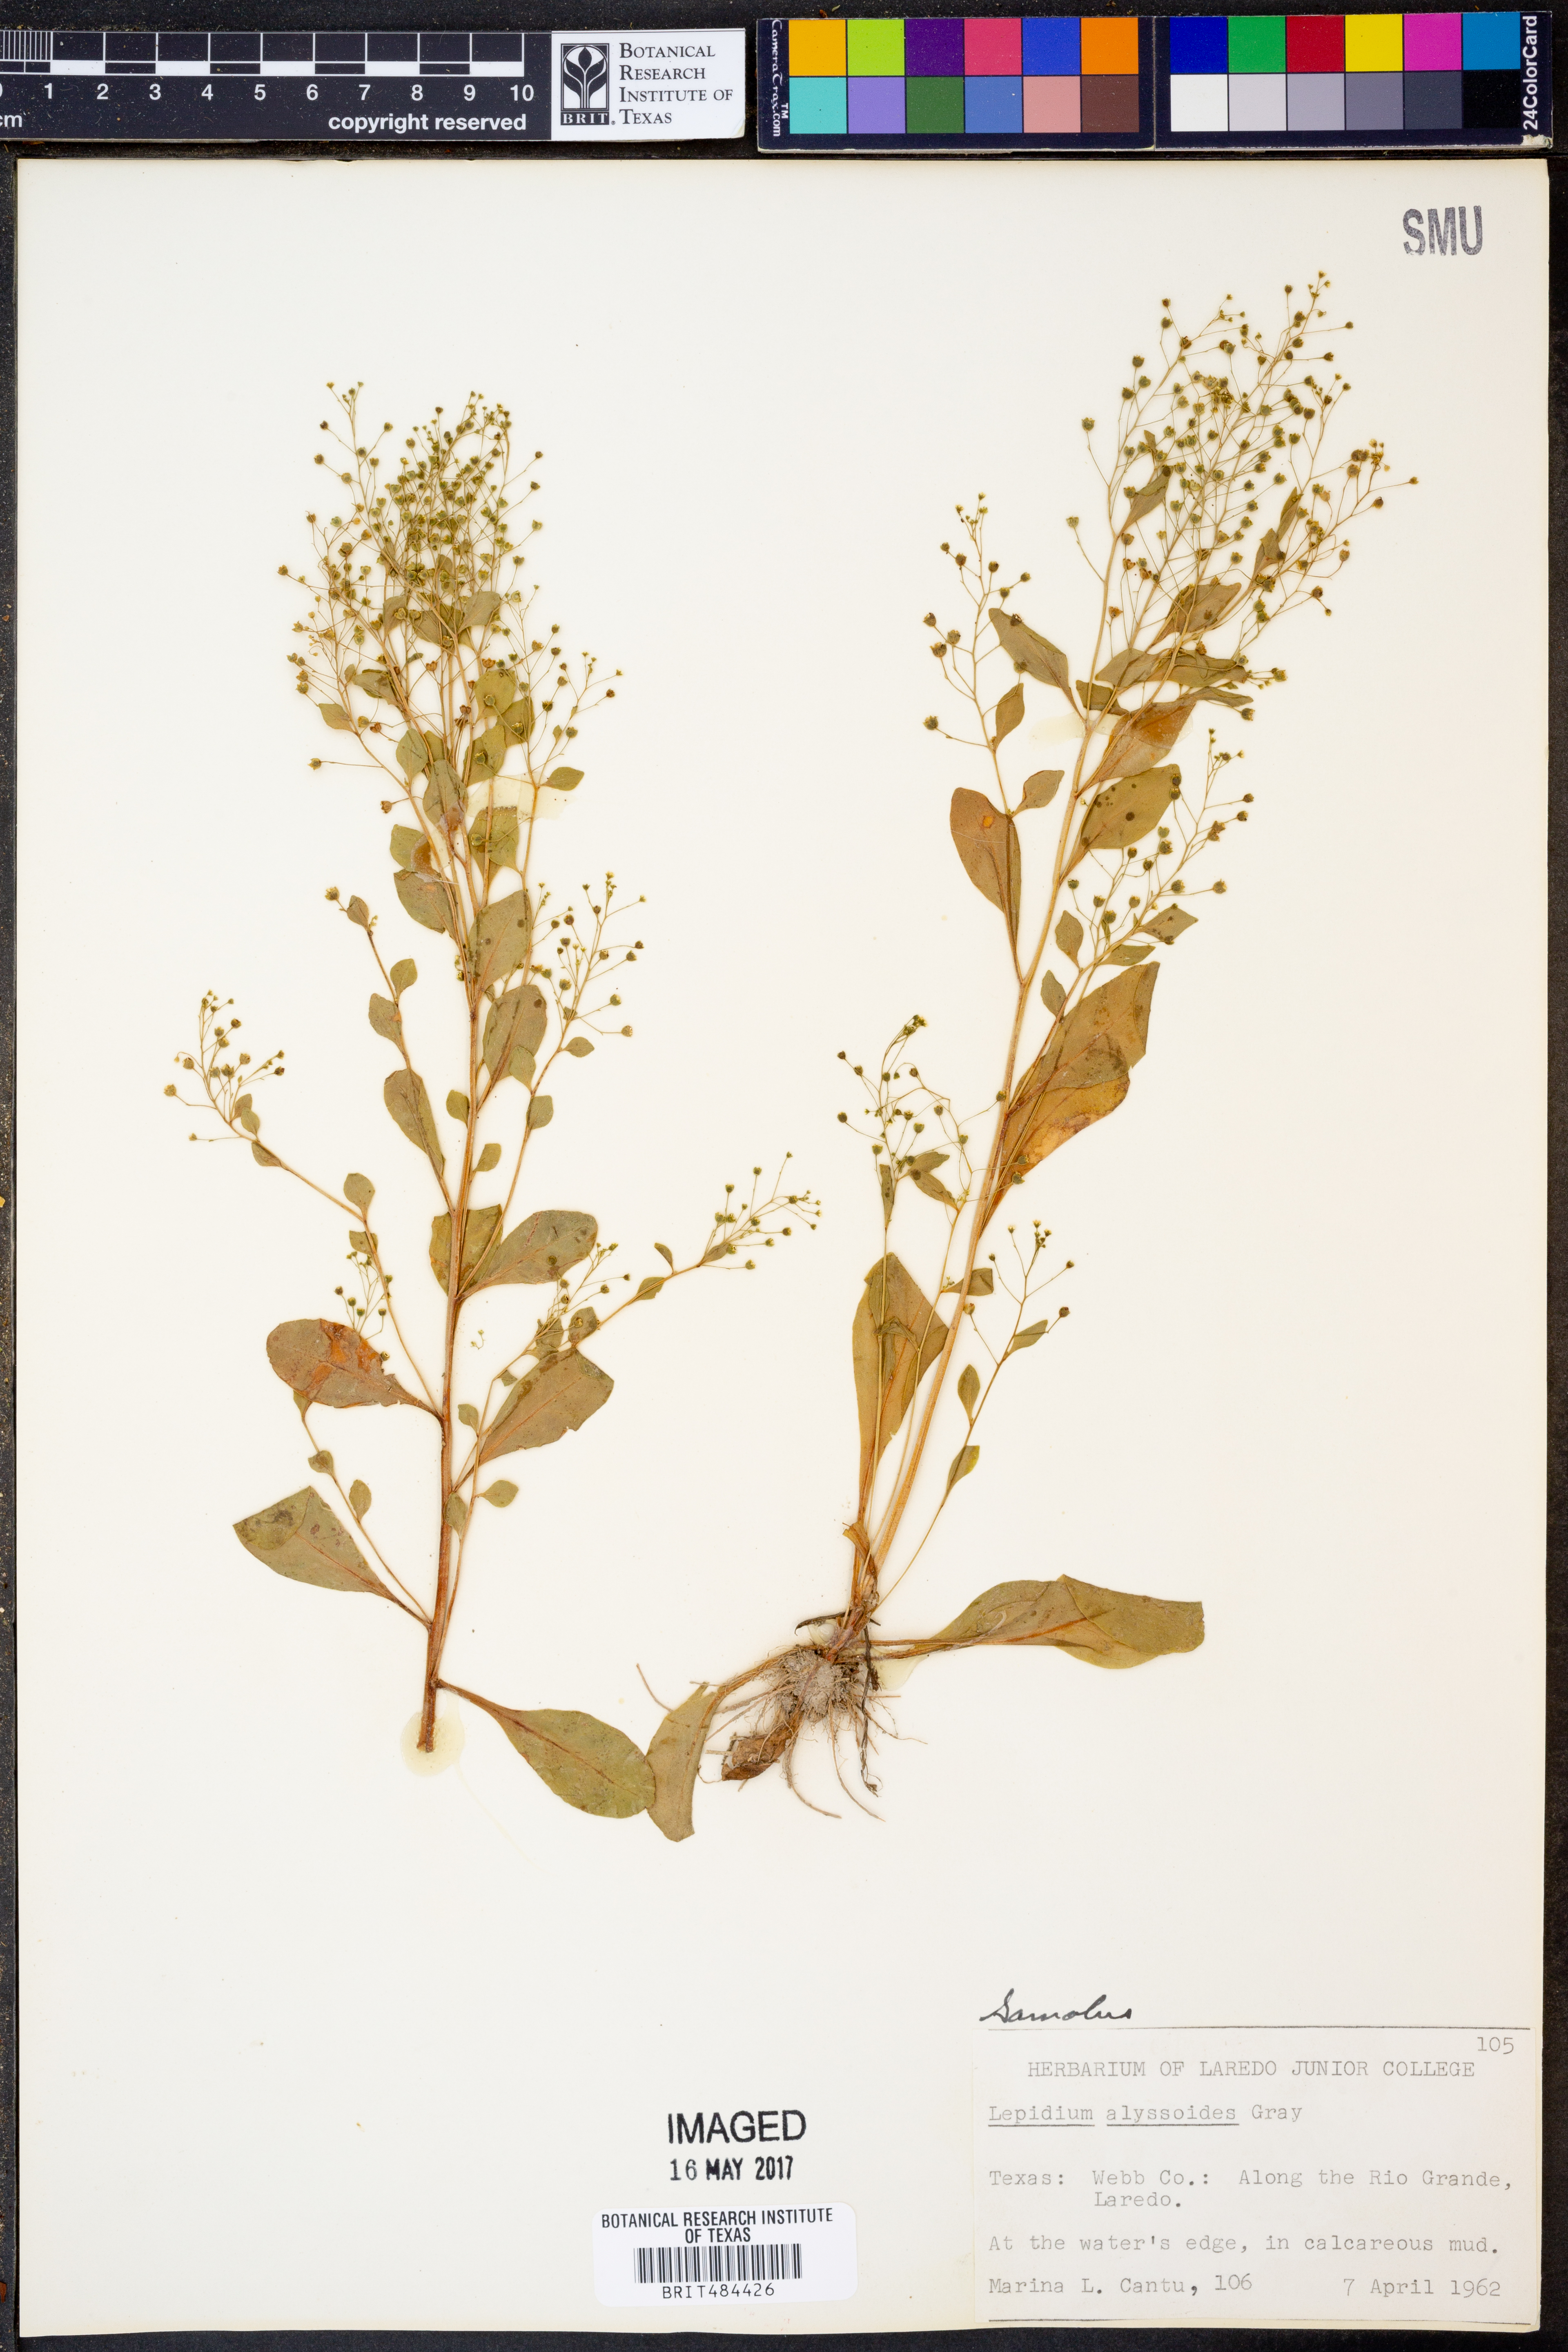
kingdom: Plantae
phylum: Tracheophyta
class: Magnoliopsida
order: Brassicales
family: Brassicaceae
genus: Lepidium
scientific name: Lepidium alyssoides
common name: Mesa pepperweed
